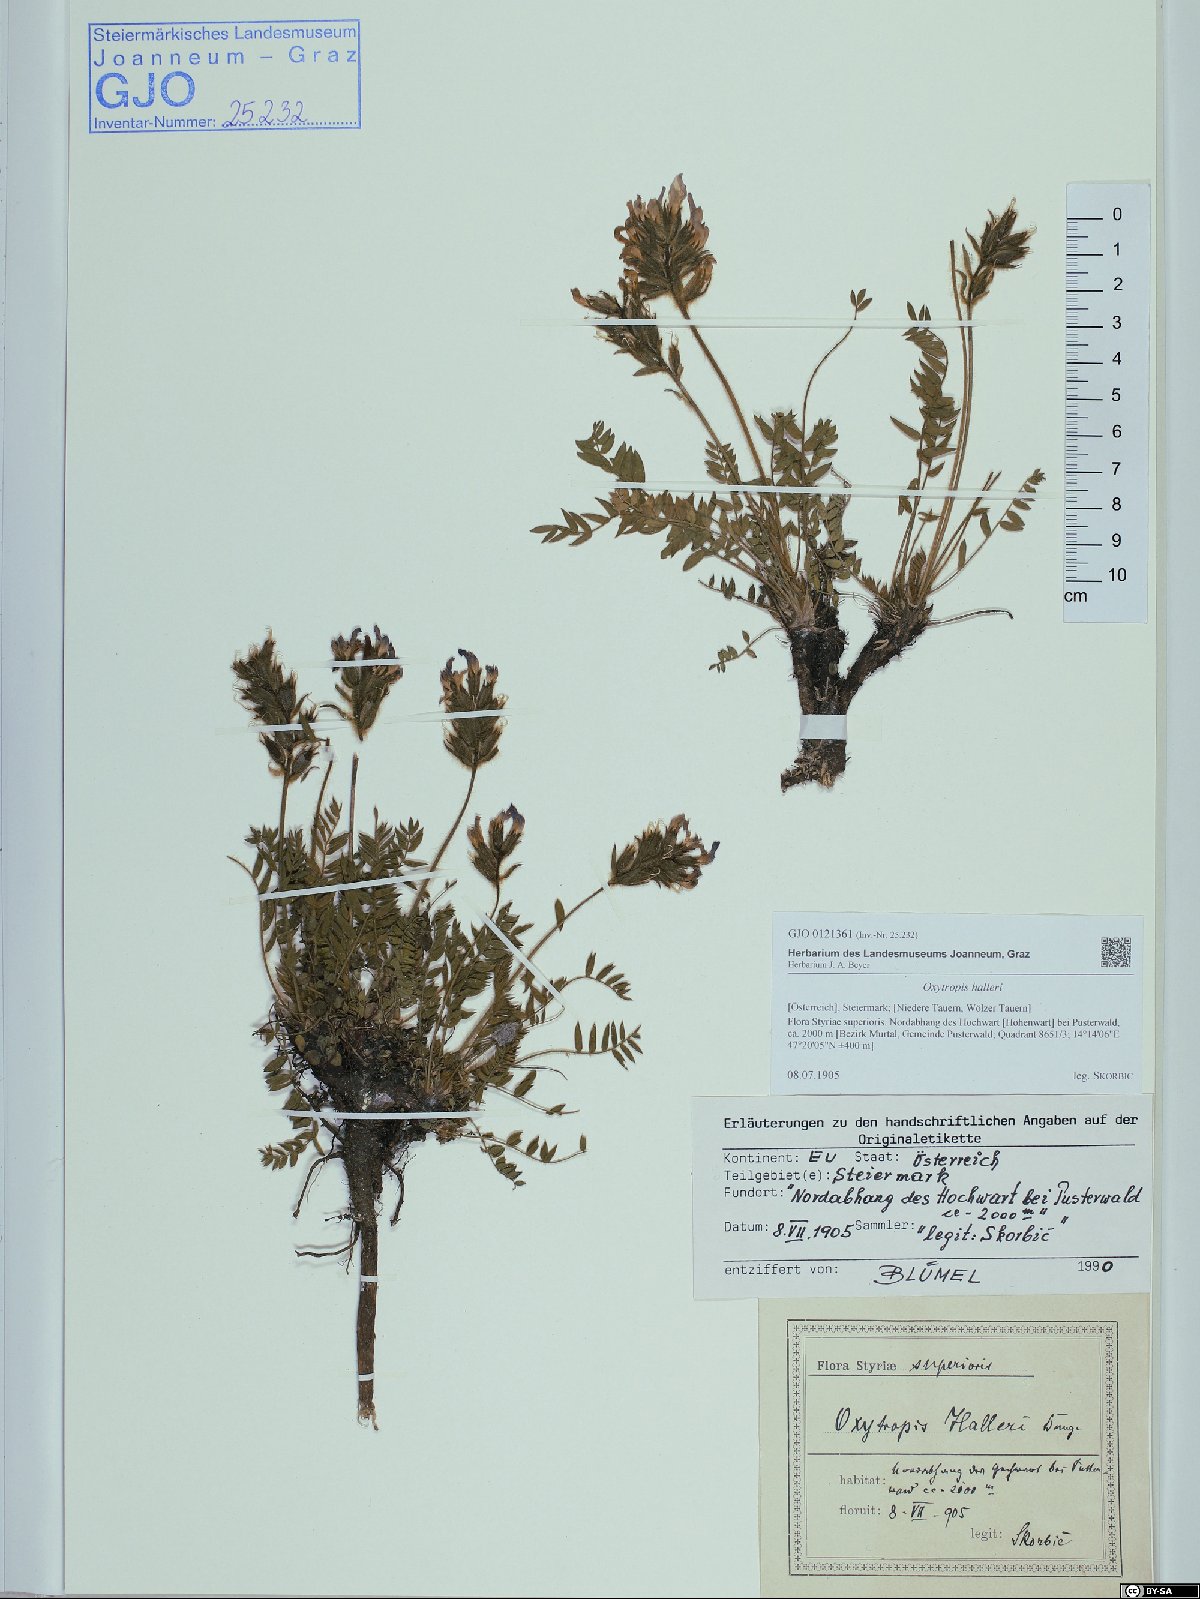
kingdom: Plantae
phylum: Tracheophyta
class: Magnoliopsida
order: Fabales
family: Fabaceae
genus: Oxytropis
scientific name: Oxytropis halleri
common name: Purple oxytropis
